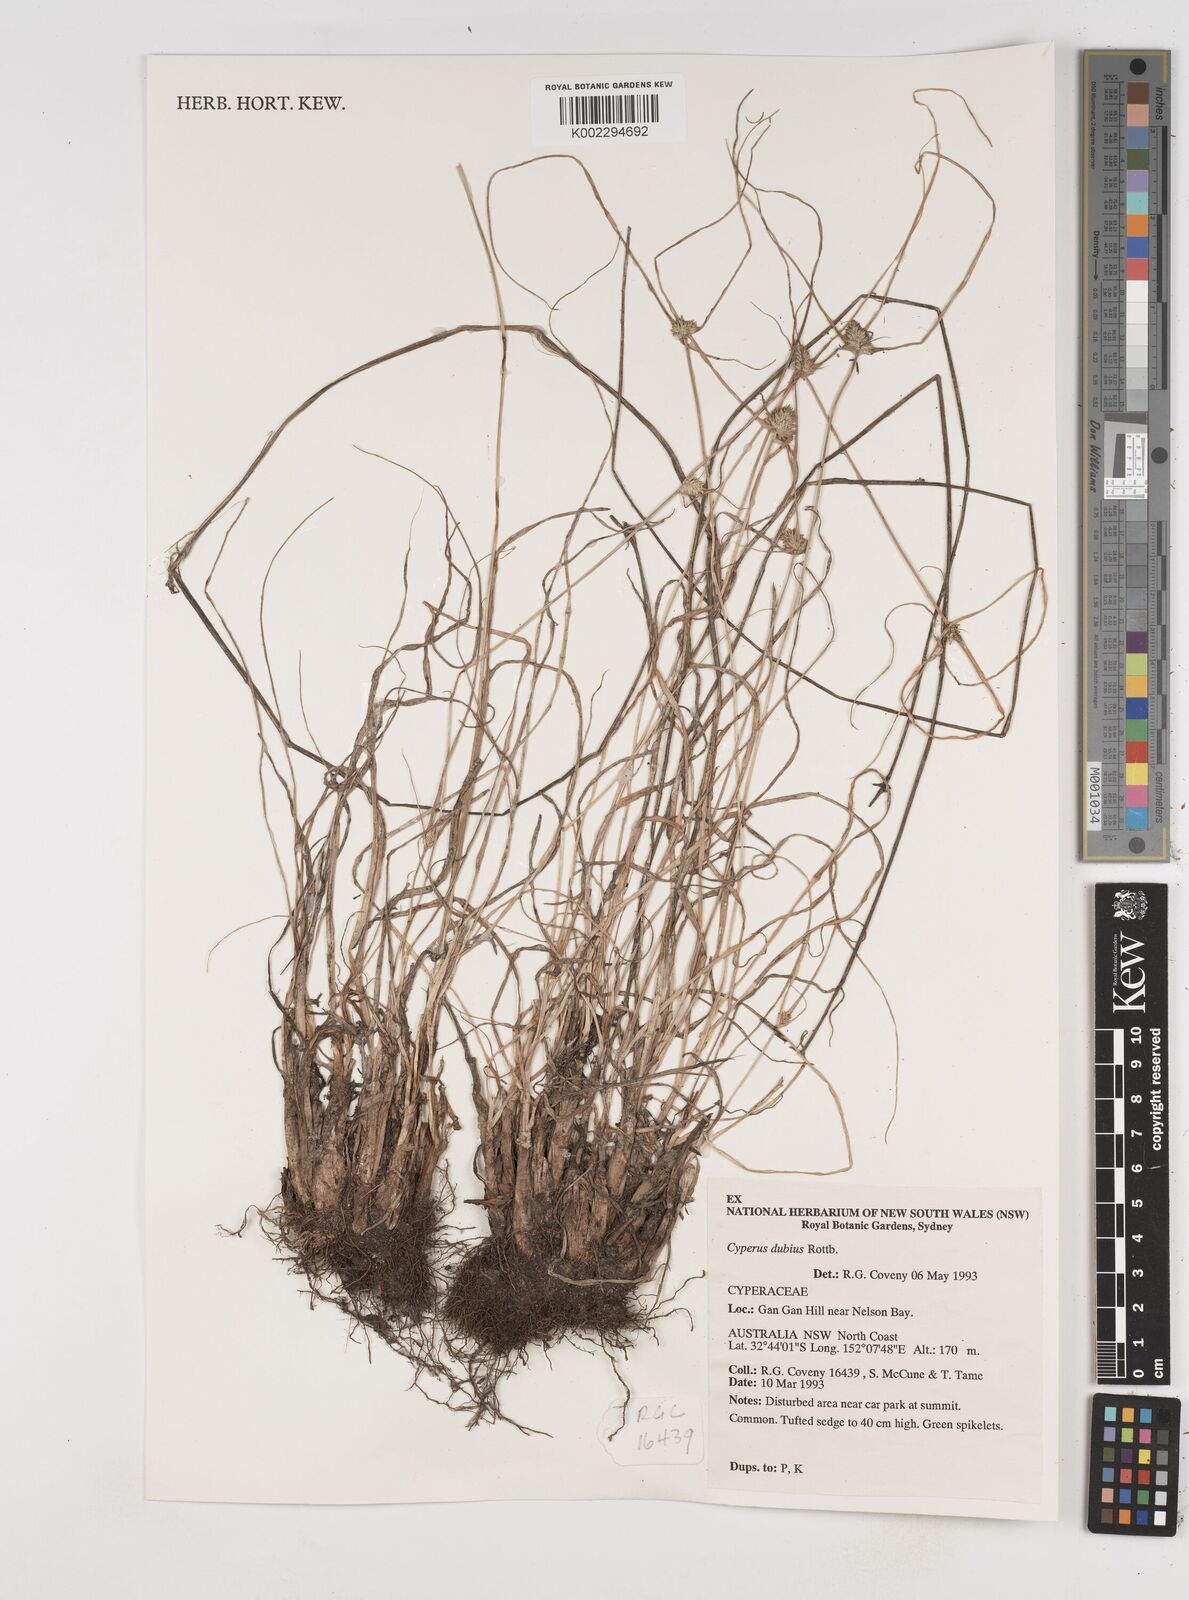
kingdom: Plantae
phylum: Tracheophyta
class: Liliopsida
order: Poales
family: Cyperaceae
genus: Cyperus
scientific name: Cyperus dubius
